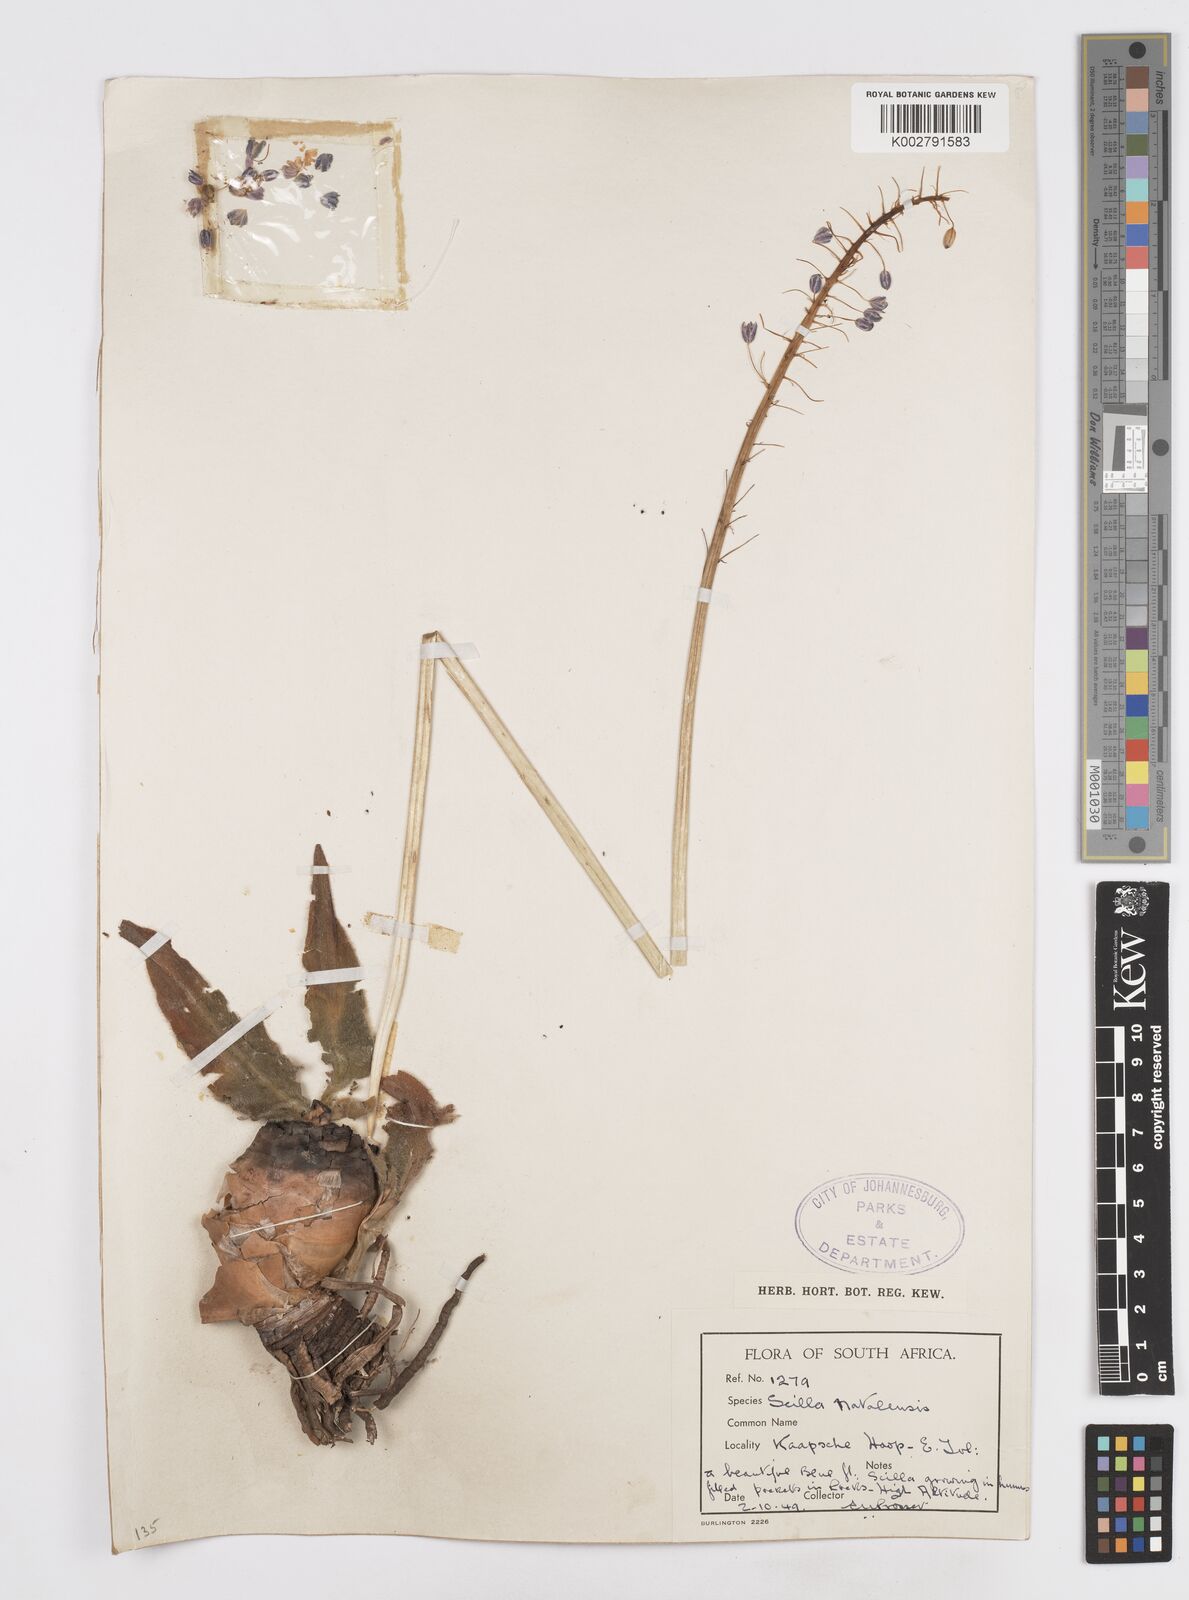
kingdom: Plantae
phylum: Tracheophyta
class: Liliopsida
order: Asparagales
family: Asparagaceae
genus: Merwilla
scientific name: Merwilla plumbea
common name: Blue-squill
